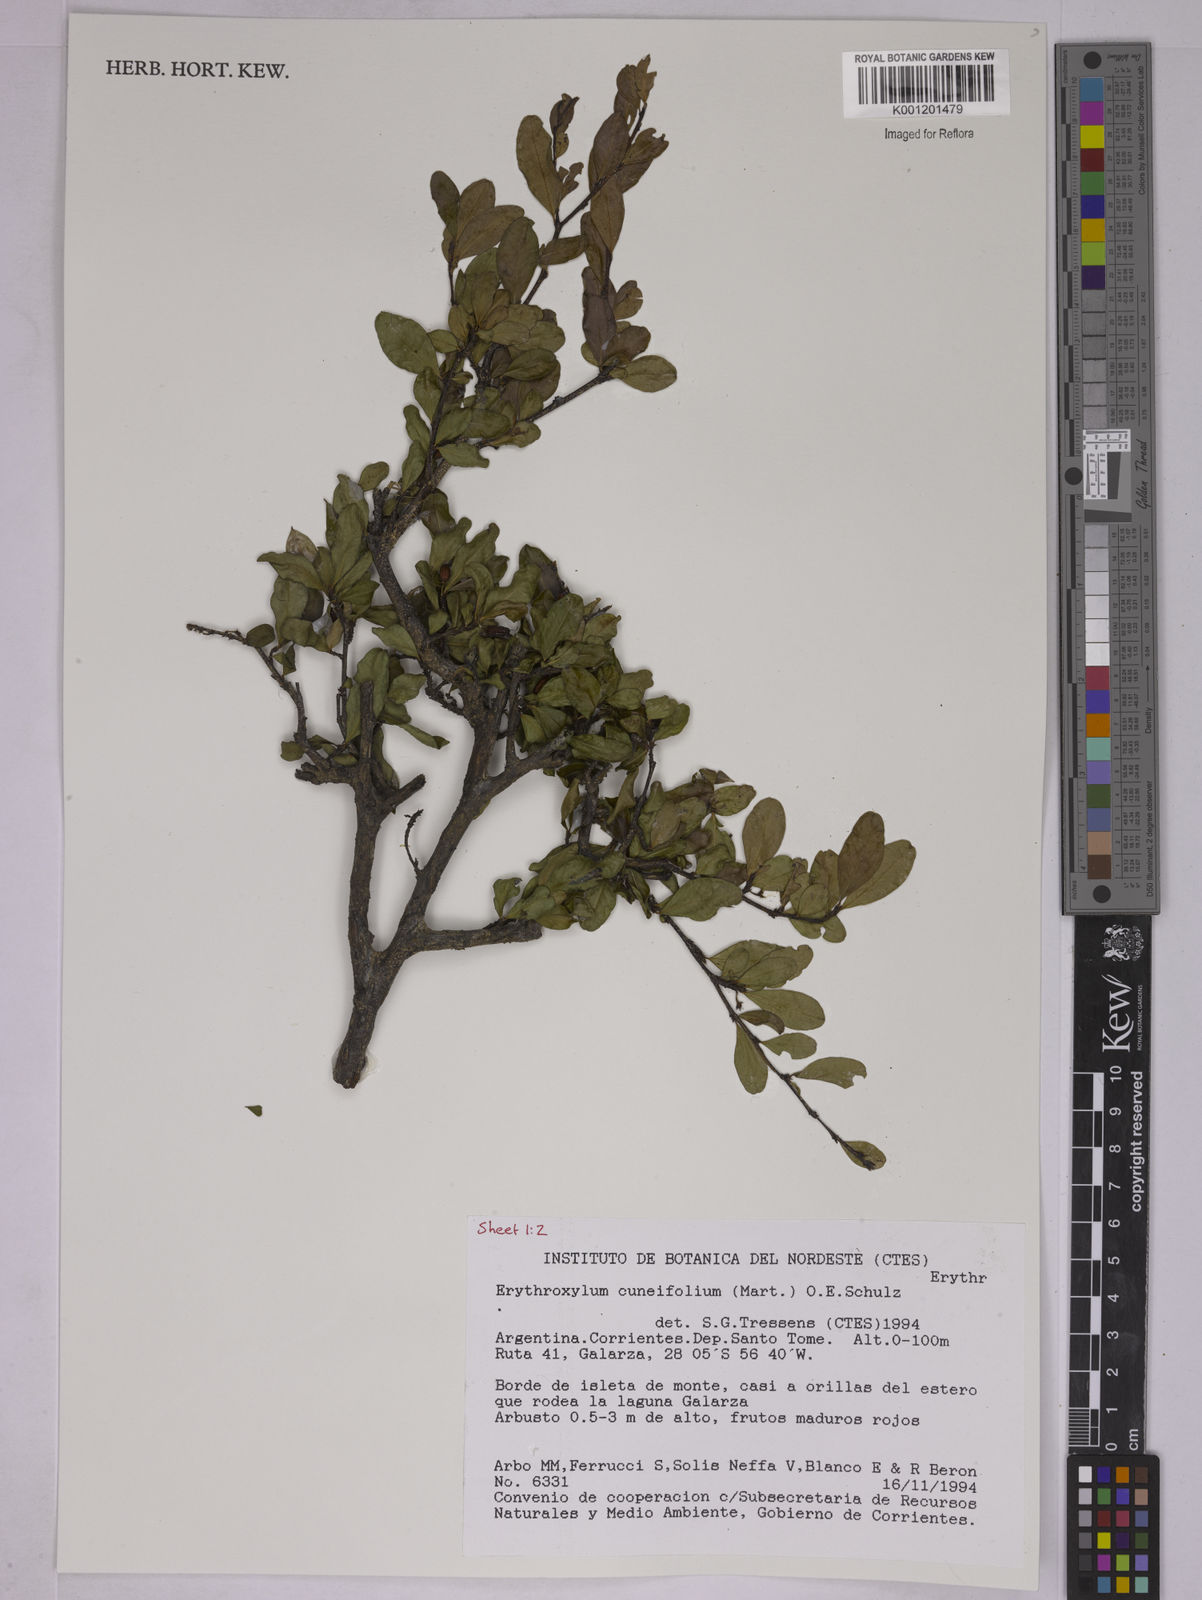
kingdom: Plantae
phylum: Tracheophyta
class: Magnoliopsida
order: Malpighiales
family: Erythroxylaceae
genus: Erythroxylum
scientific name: Erythroxylum cuneifolium
